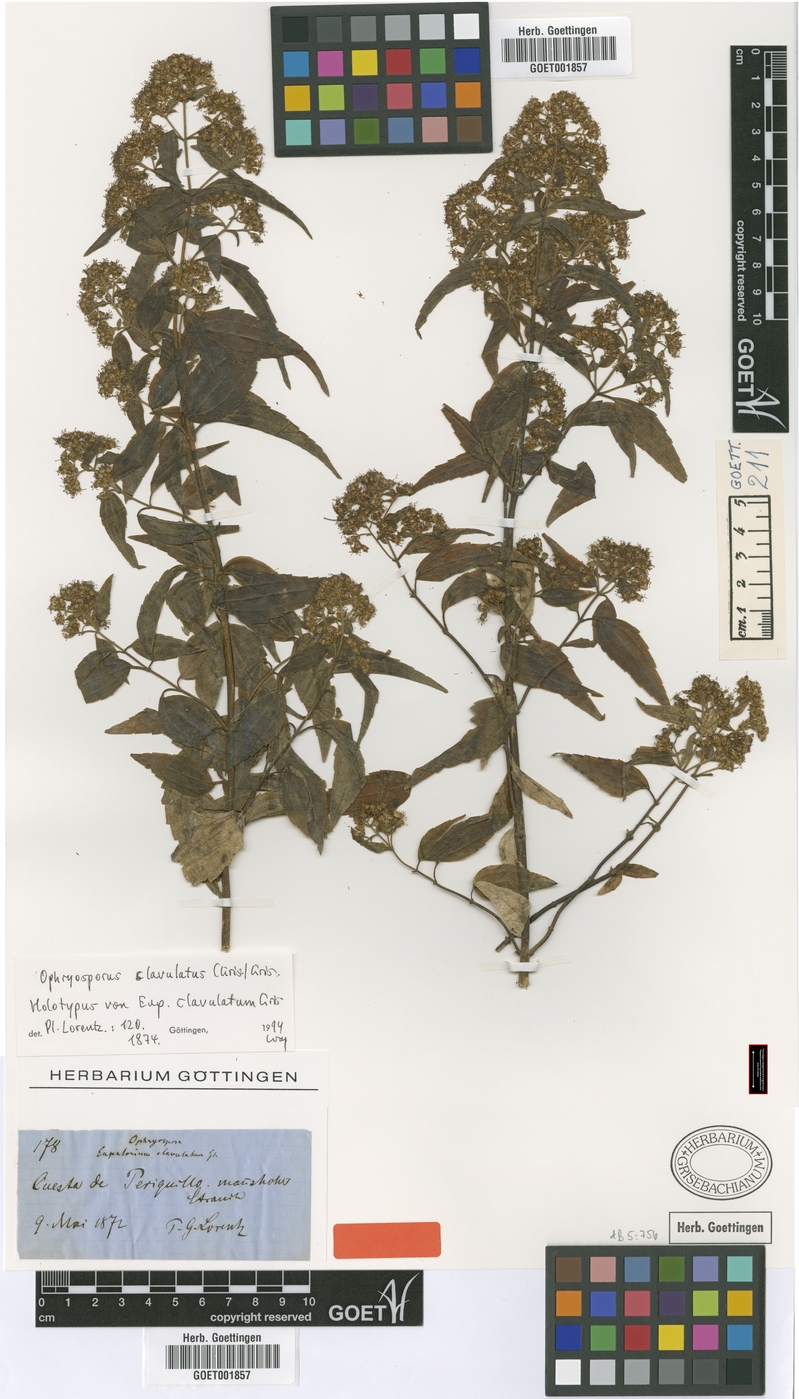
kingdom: Plantae
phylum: Tracheophyta
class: Magnoliopsida
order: Asterales
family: Asteraceae
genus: Ophryosporus
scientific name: Ophryosporus clavulatus
